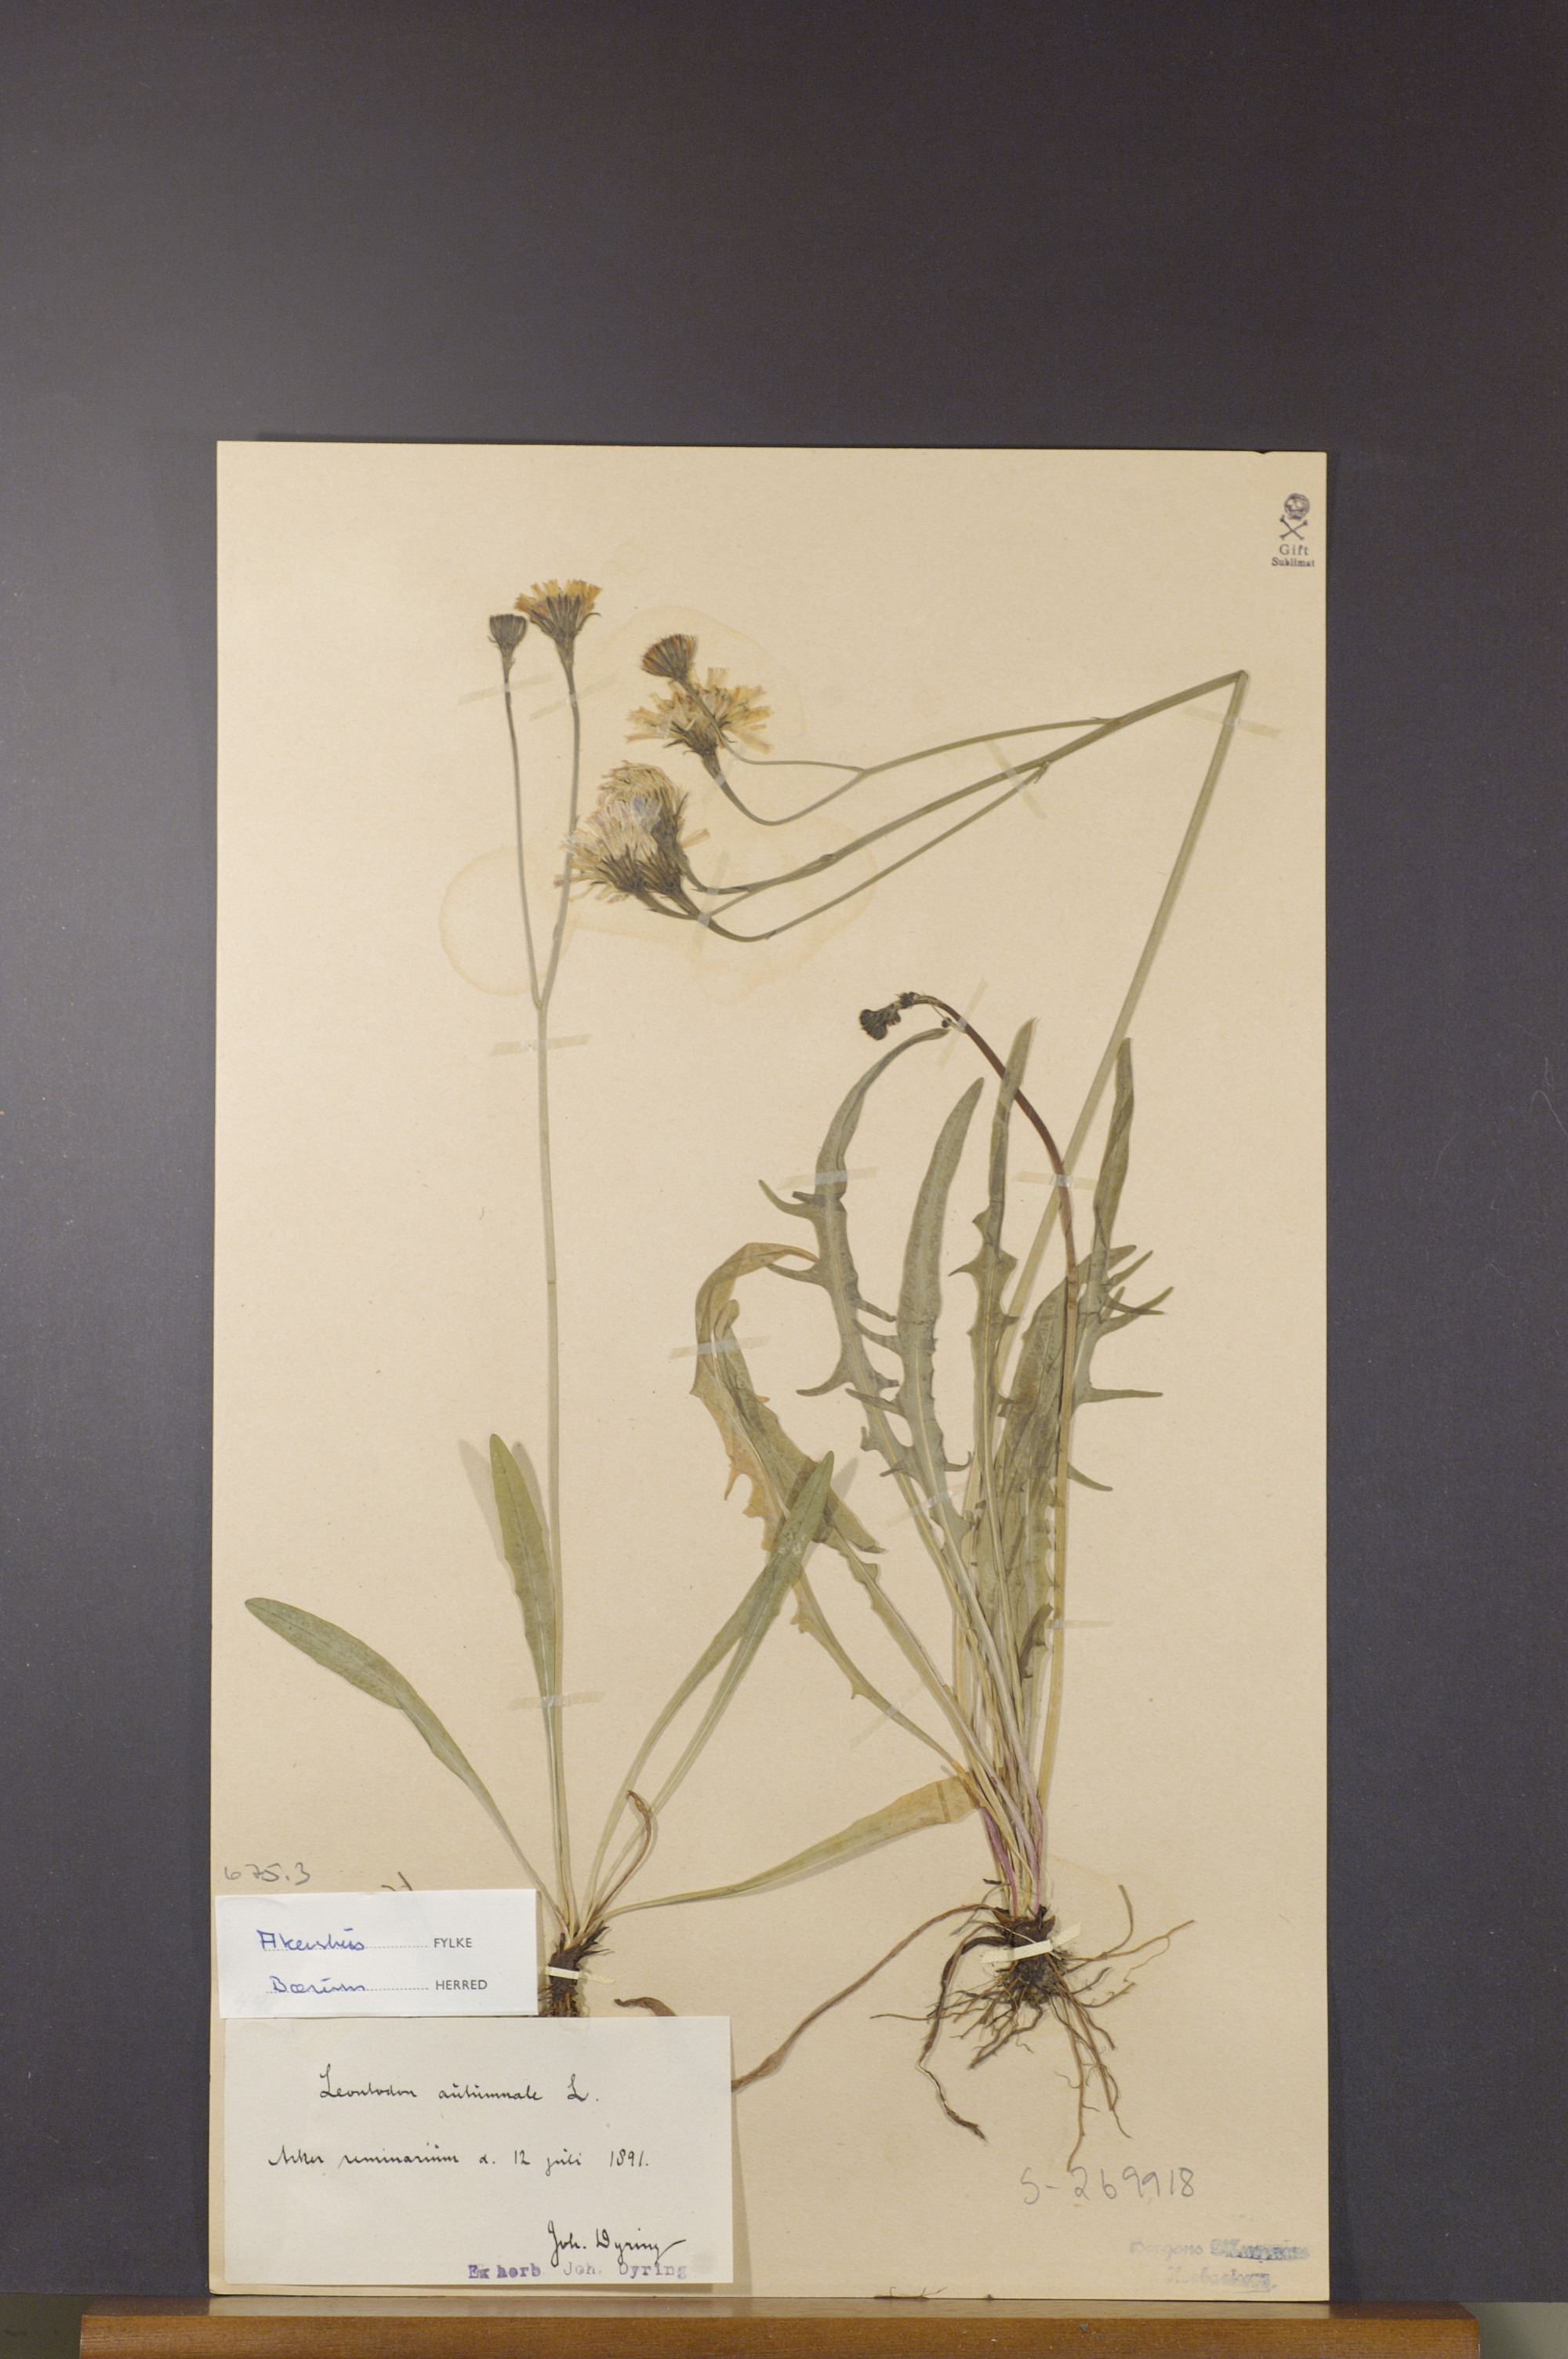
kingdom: Plantae
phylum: Tracheophyta
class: Magnoliopsida
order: Asterales
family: Asteraceae
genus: Scorzoneroides
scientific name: Scorzoneroides autumnalis
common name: Autumn hawkbit
